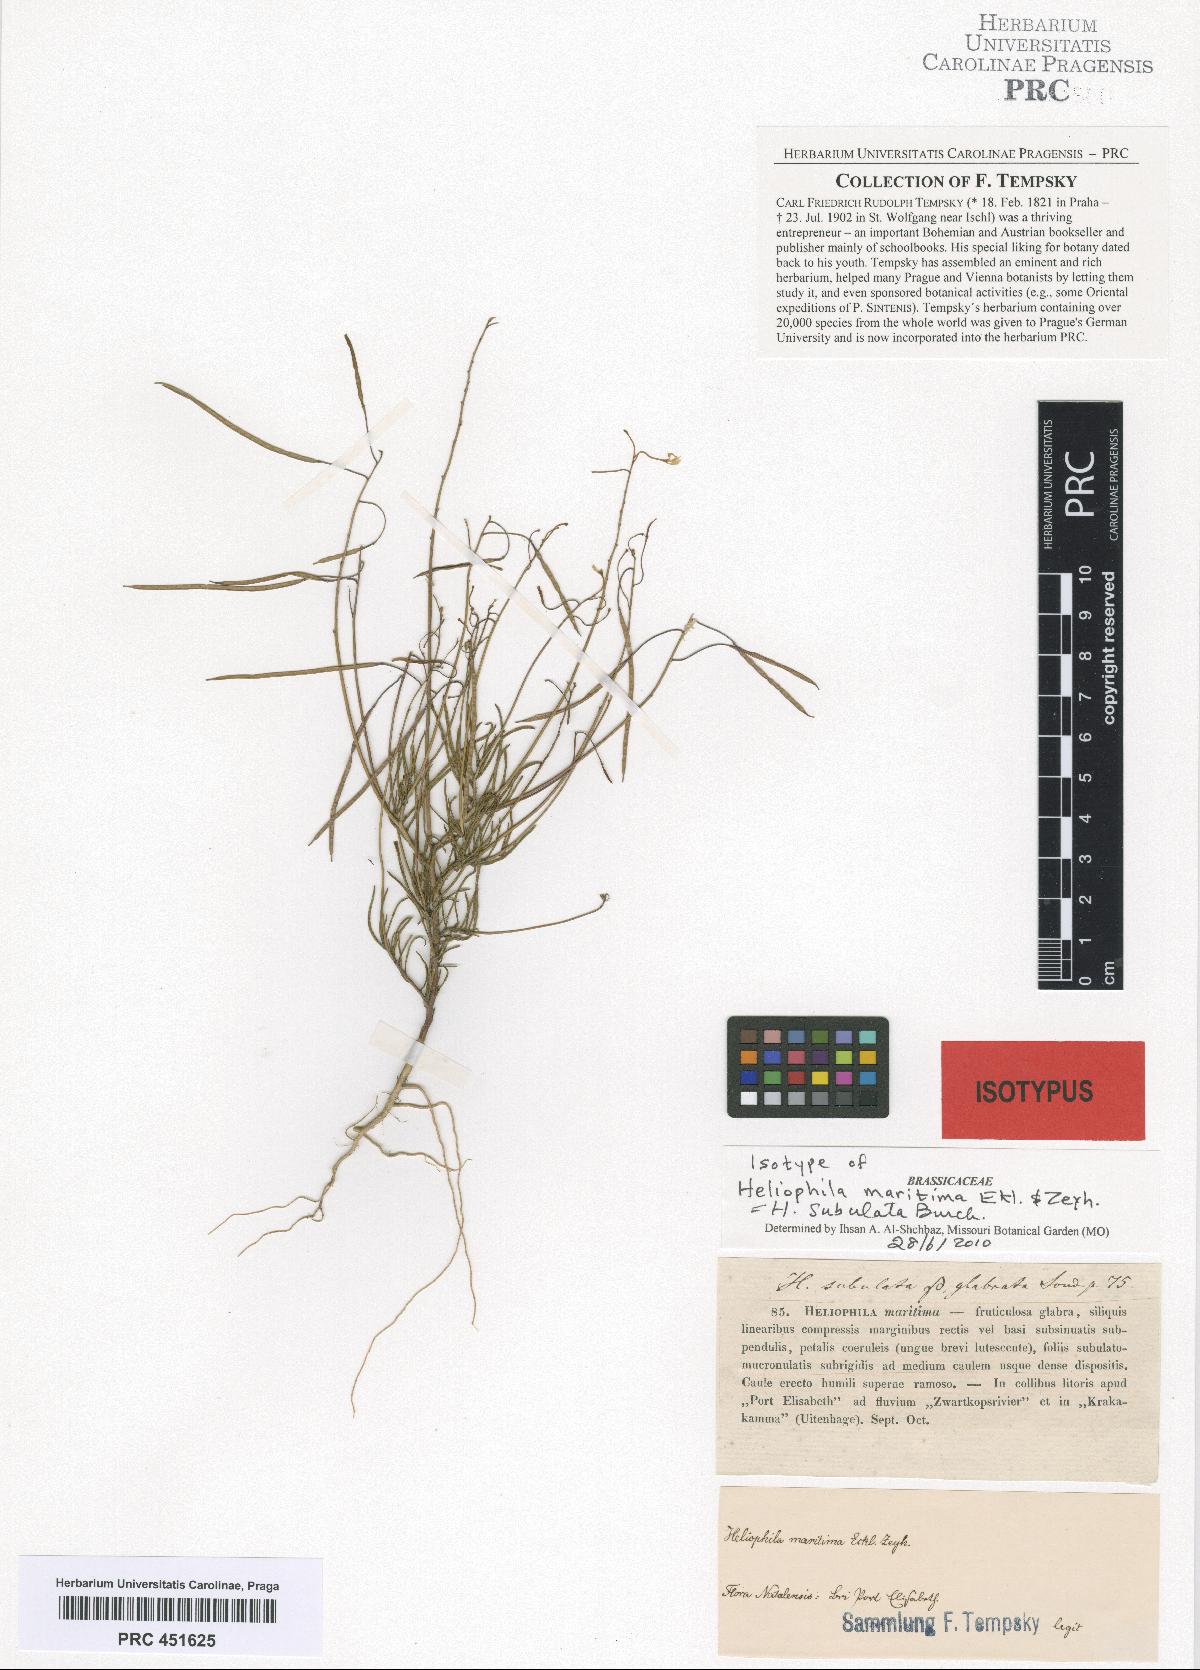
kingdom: Plantae
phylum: Tracheophyta
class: Magnoliopsida
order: Brassicales
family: Brassicaceae
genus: Heliophila
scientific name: Heliophila subulata
